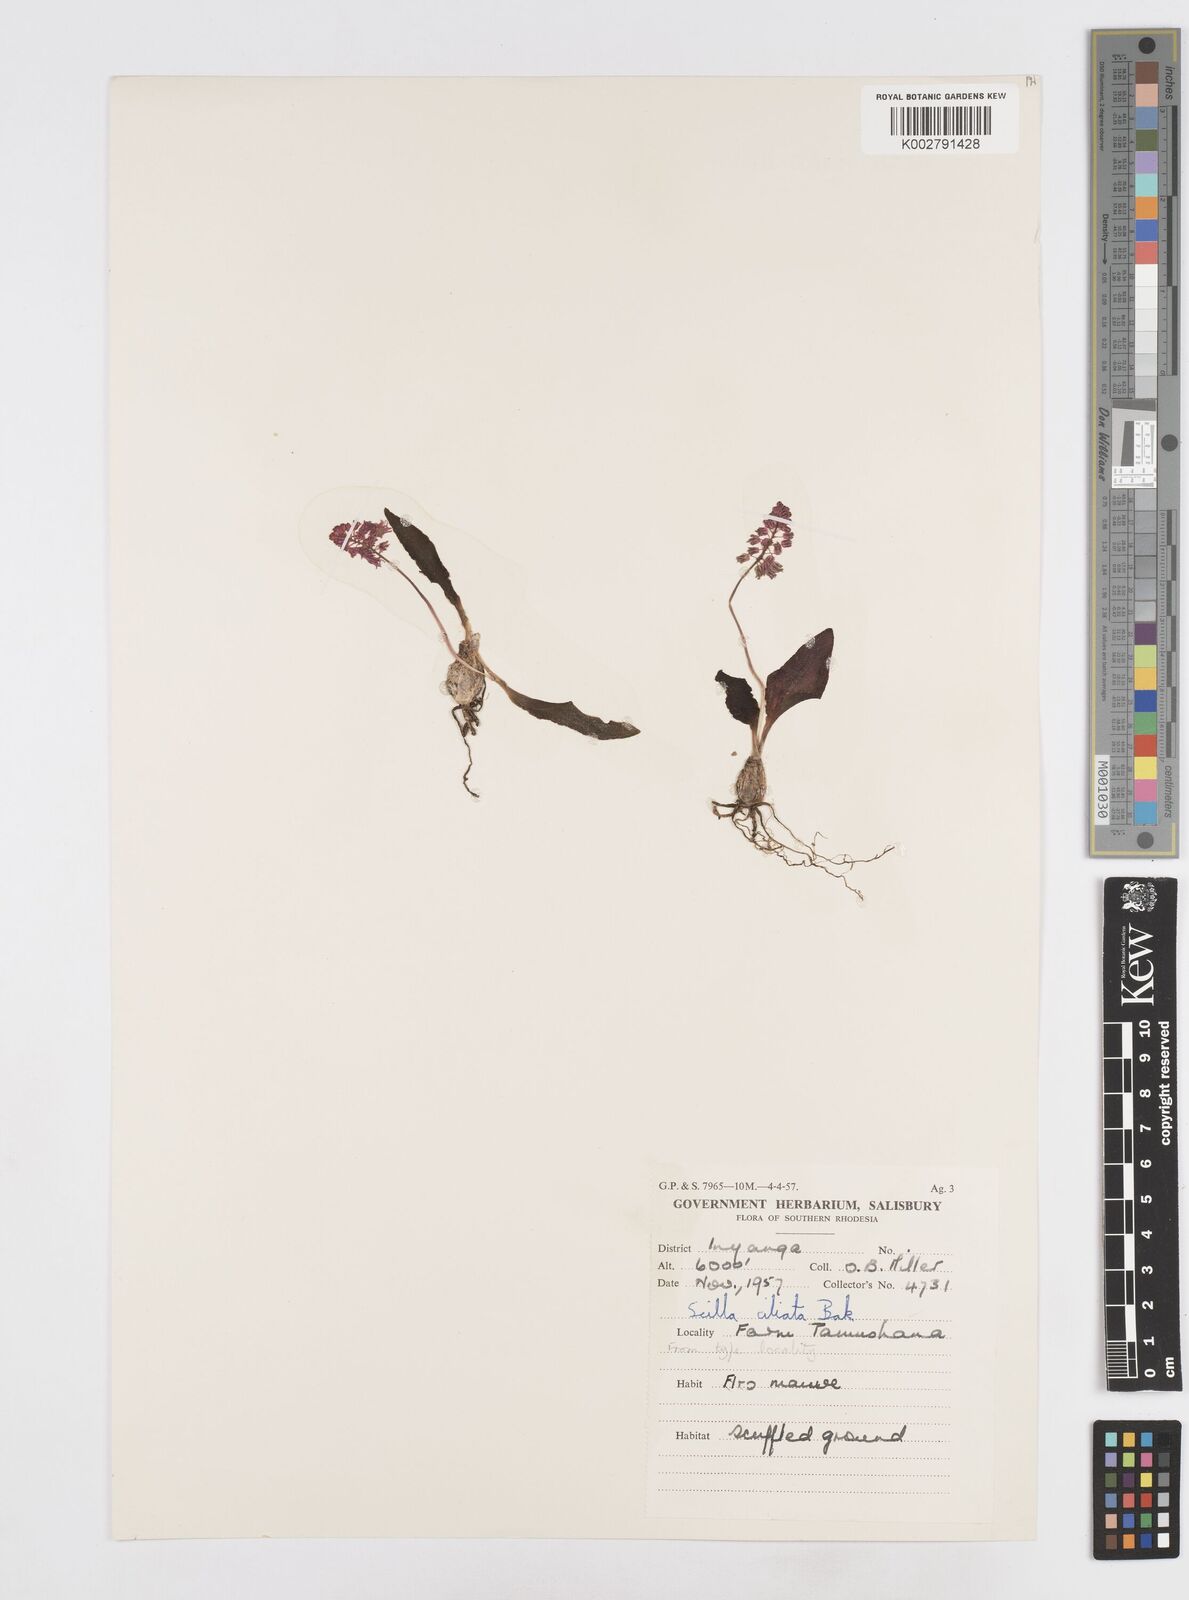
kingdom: Plantae
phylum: Tracheophyta
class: Liliopsida
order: Asparagales
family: Asparagaceae
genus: Scilla
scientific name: Scilla ciliata
